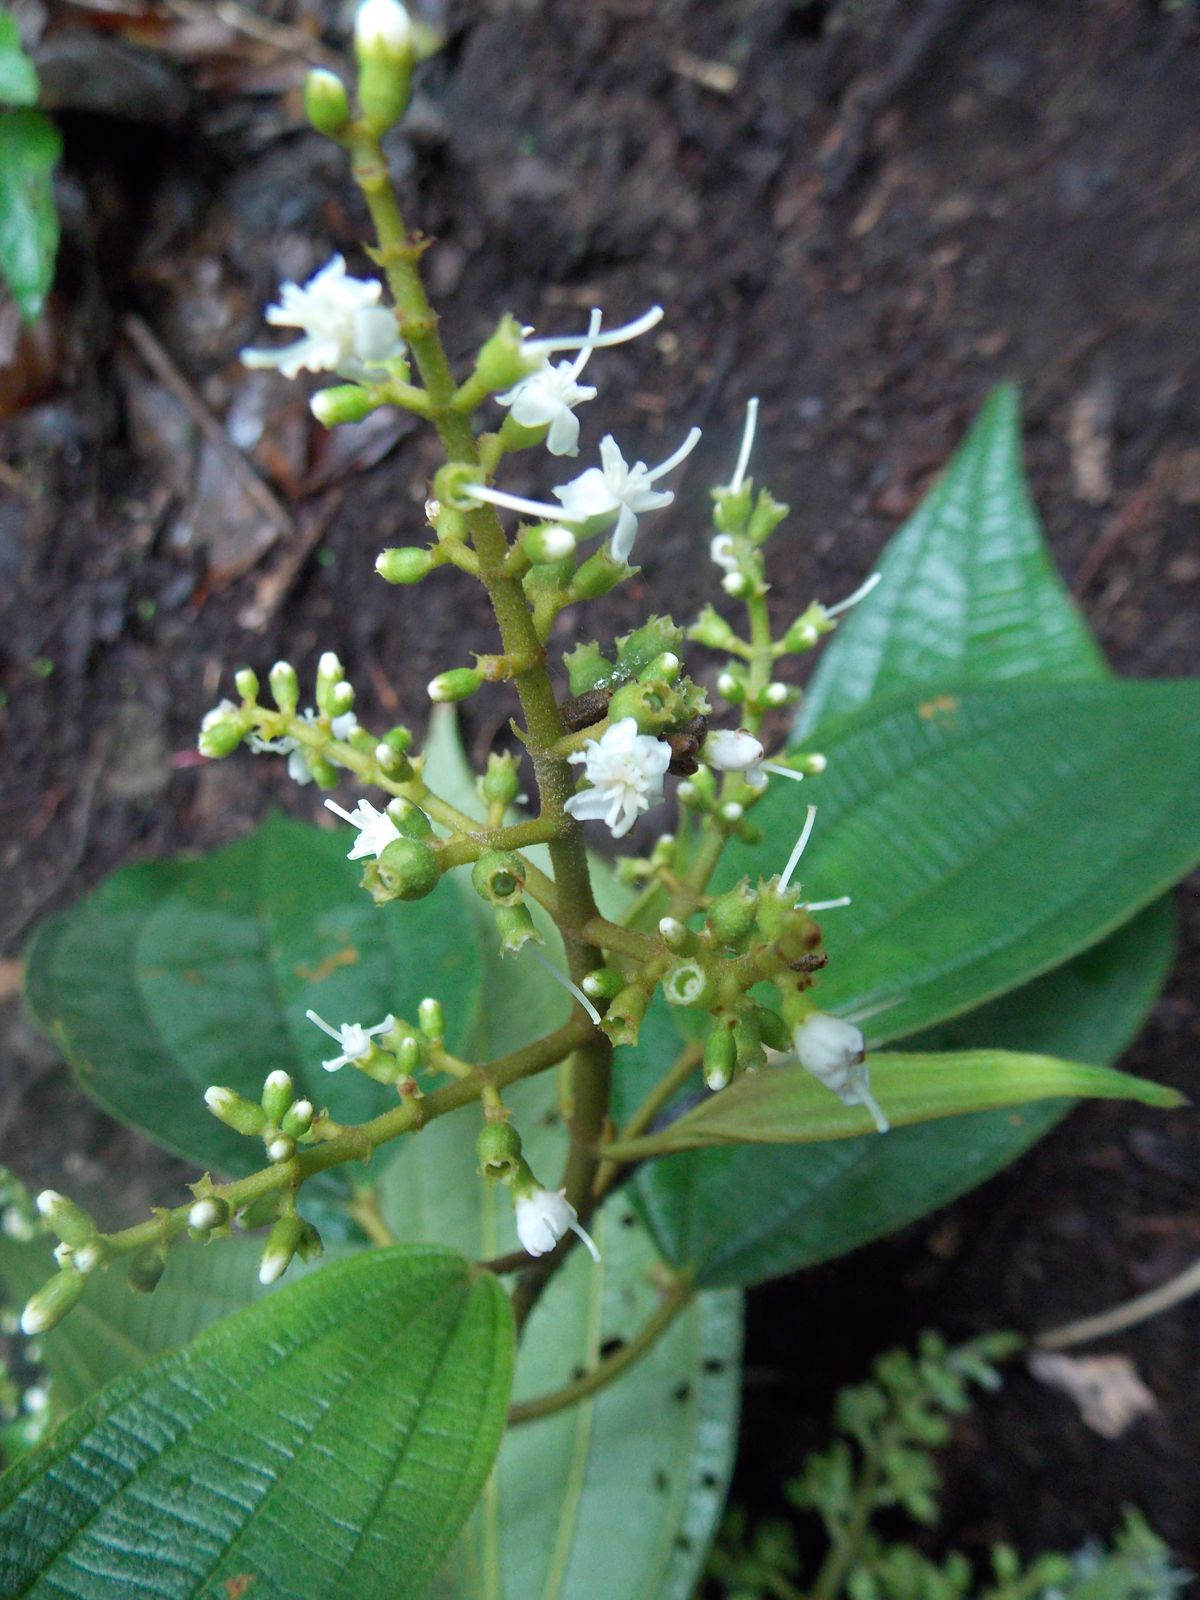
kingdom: Plantae
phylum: Tracheophyta
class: Magnoliopsida
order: Myrtales
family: Melastomataceae
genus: Miconia
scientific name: Miconia sylvatica
